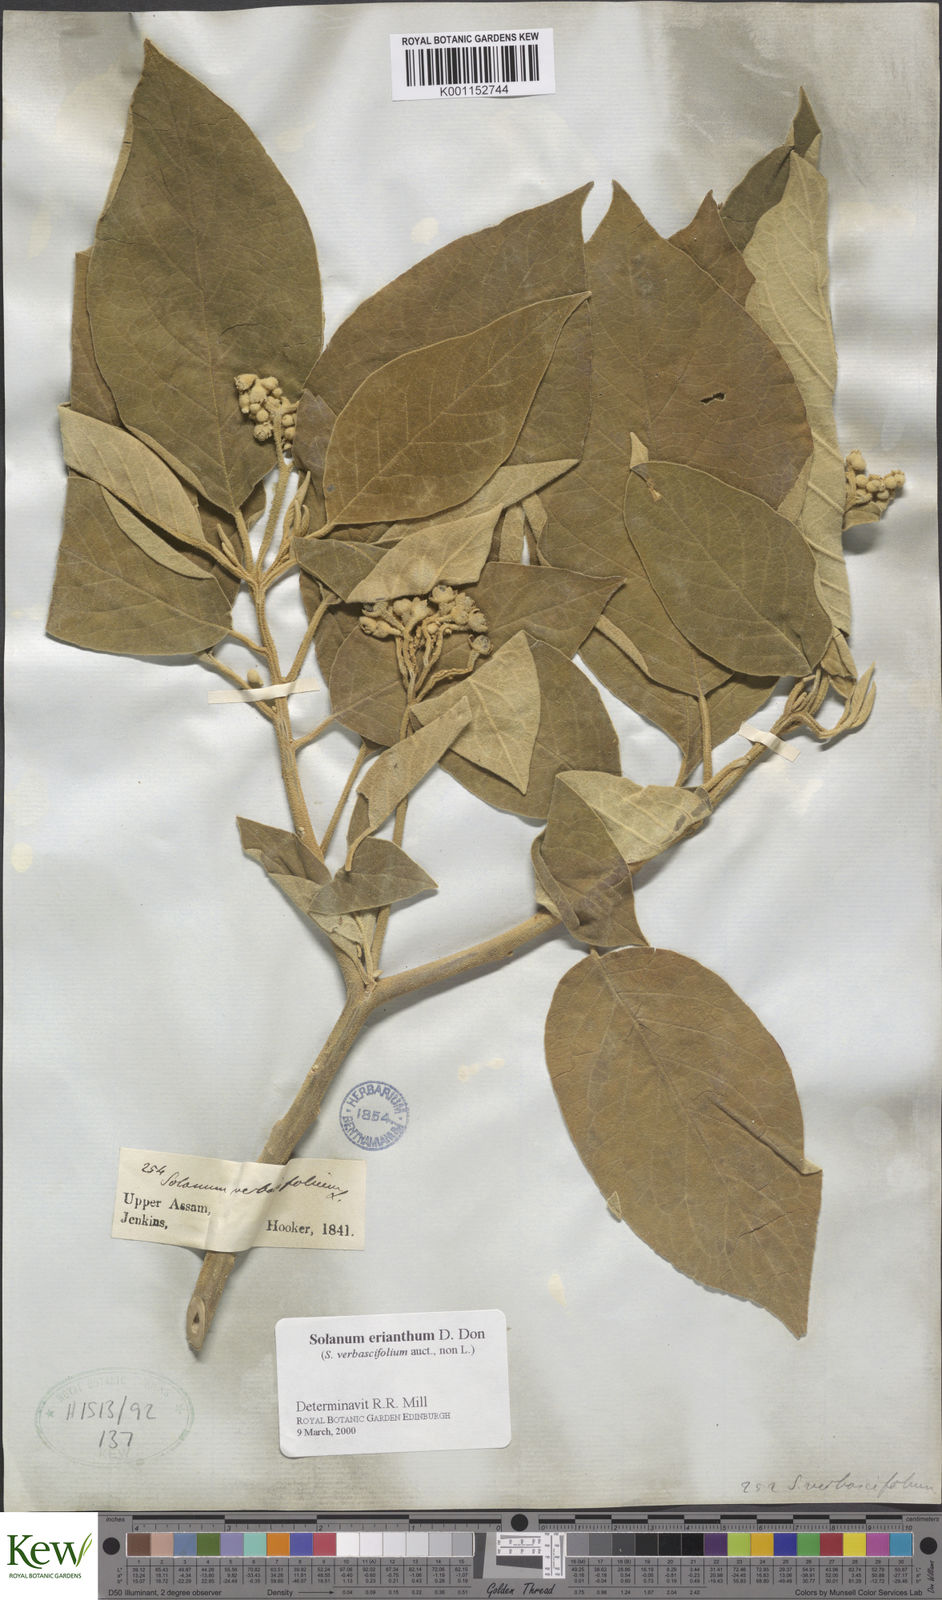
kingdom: Plantae
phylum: Tracheophyta
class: Magnoliopsida
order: Solanales
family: Solanaceae
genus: Solanum
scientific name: Solanum erianthum
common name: Tobacco-tree
